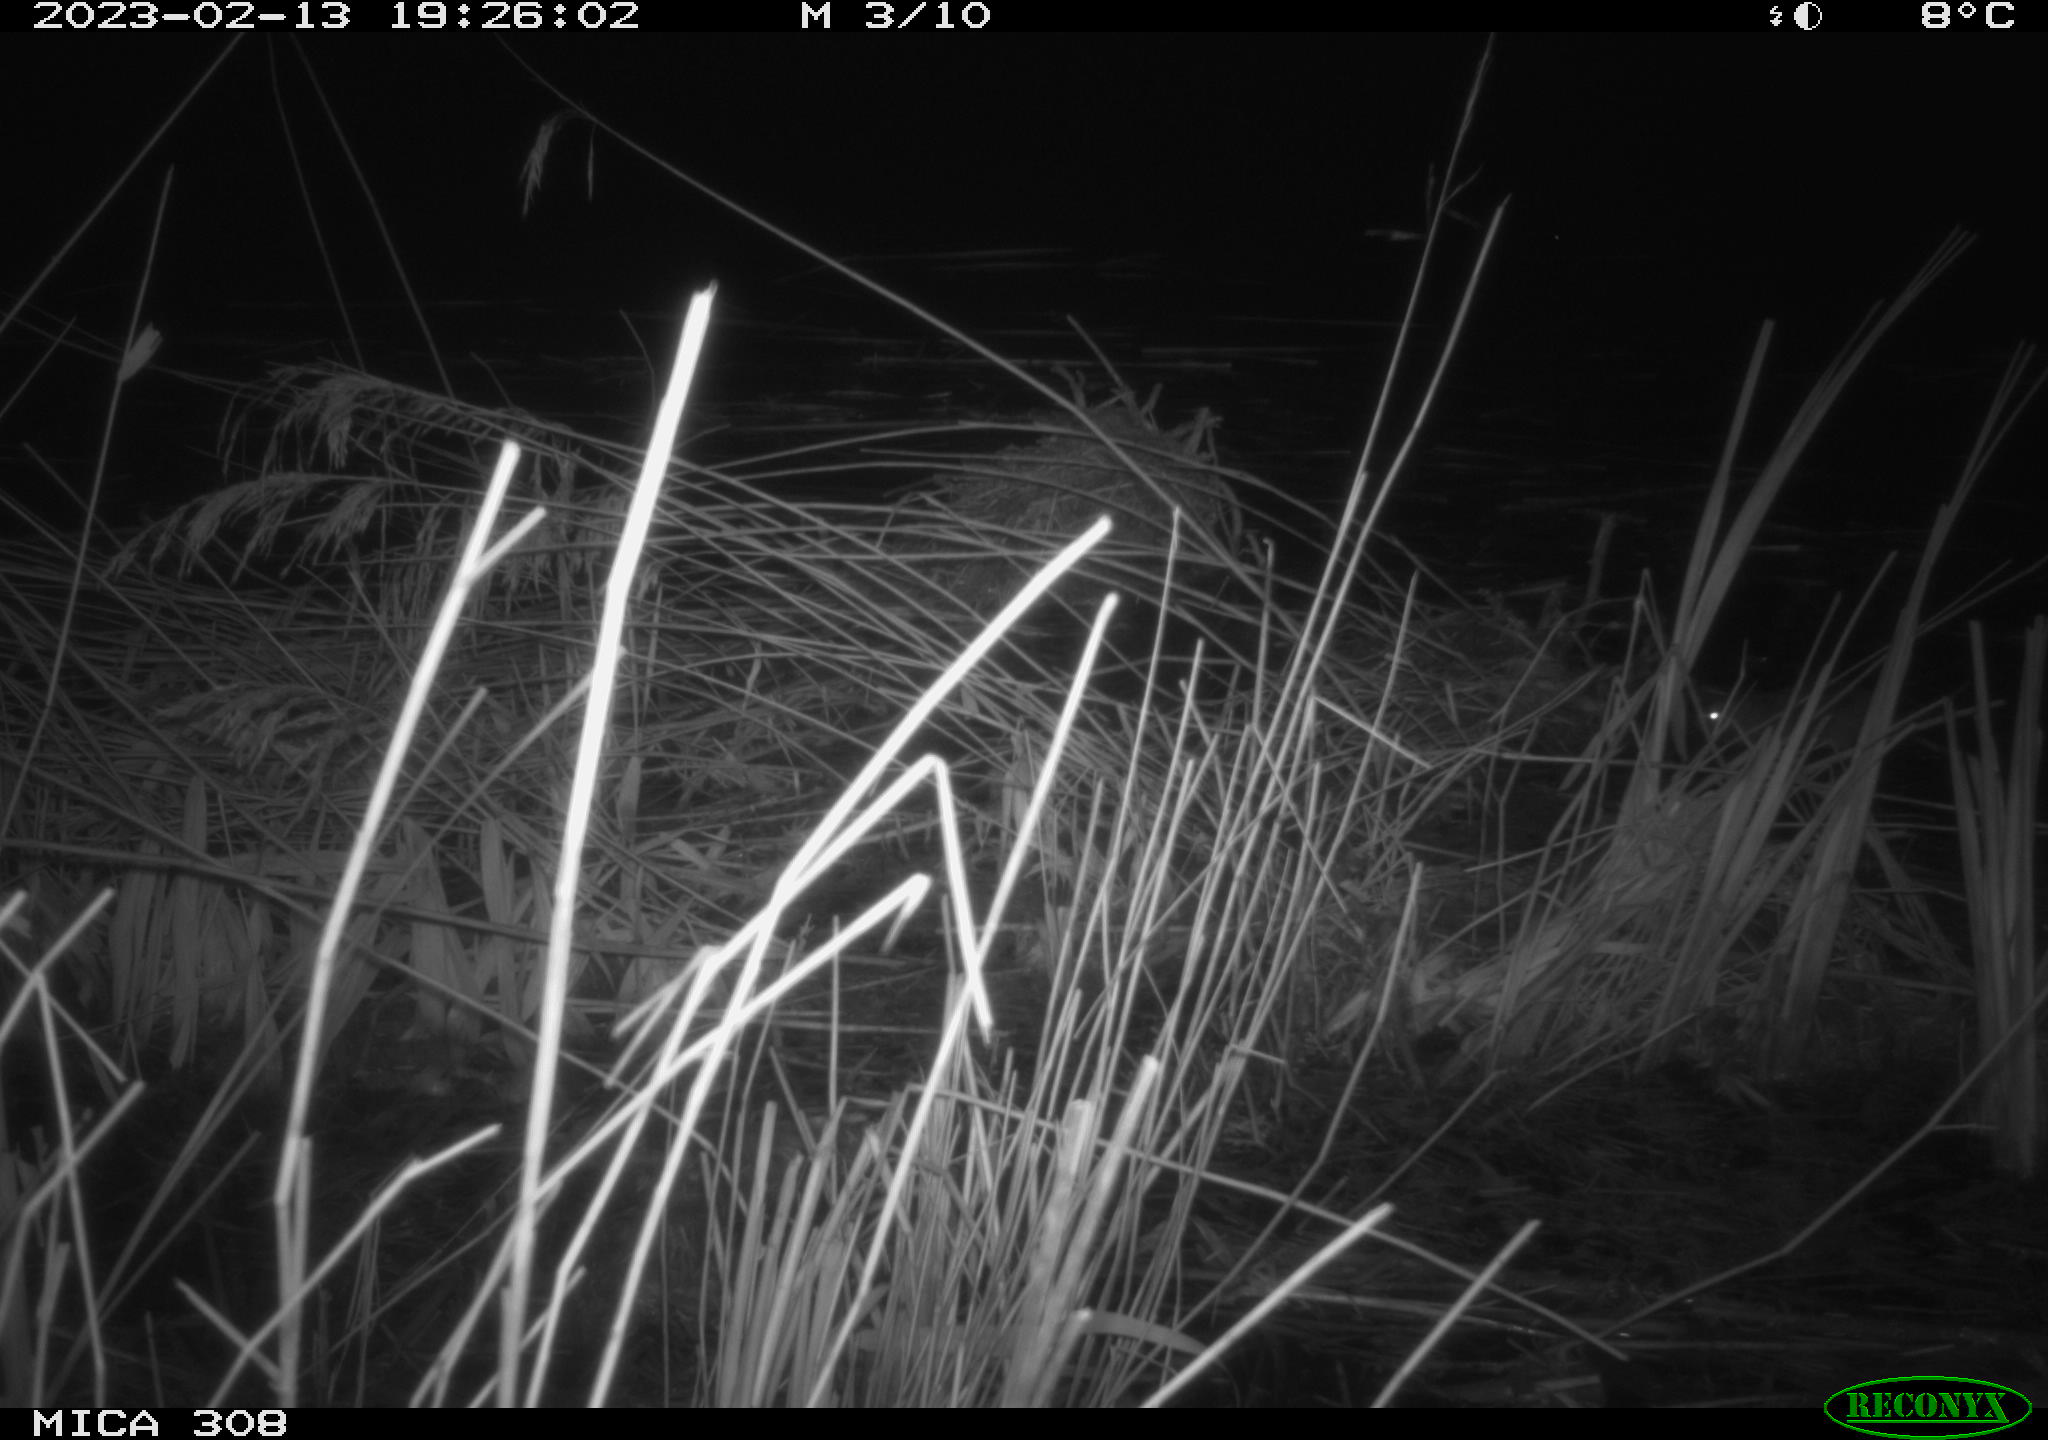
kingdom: Animalia
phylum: Chordata
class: Mammalia
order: Rodentia
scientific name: Rodentia
